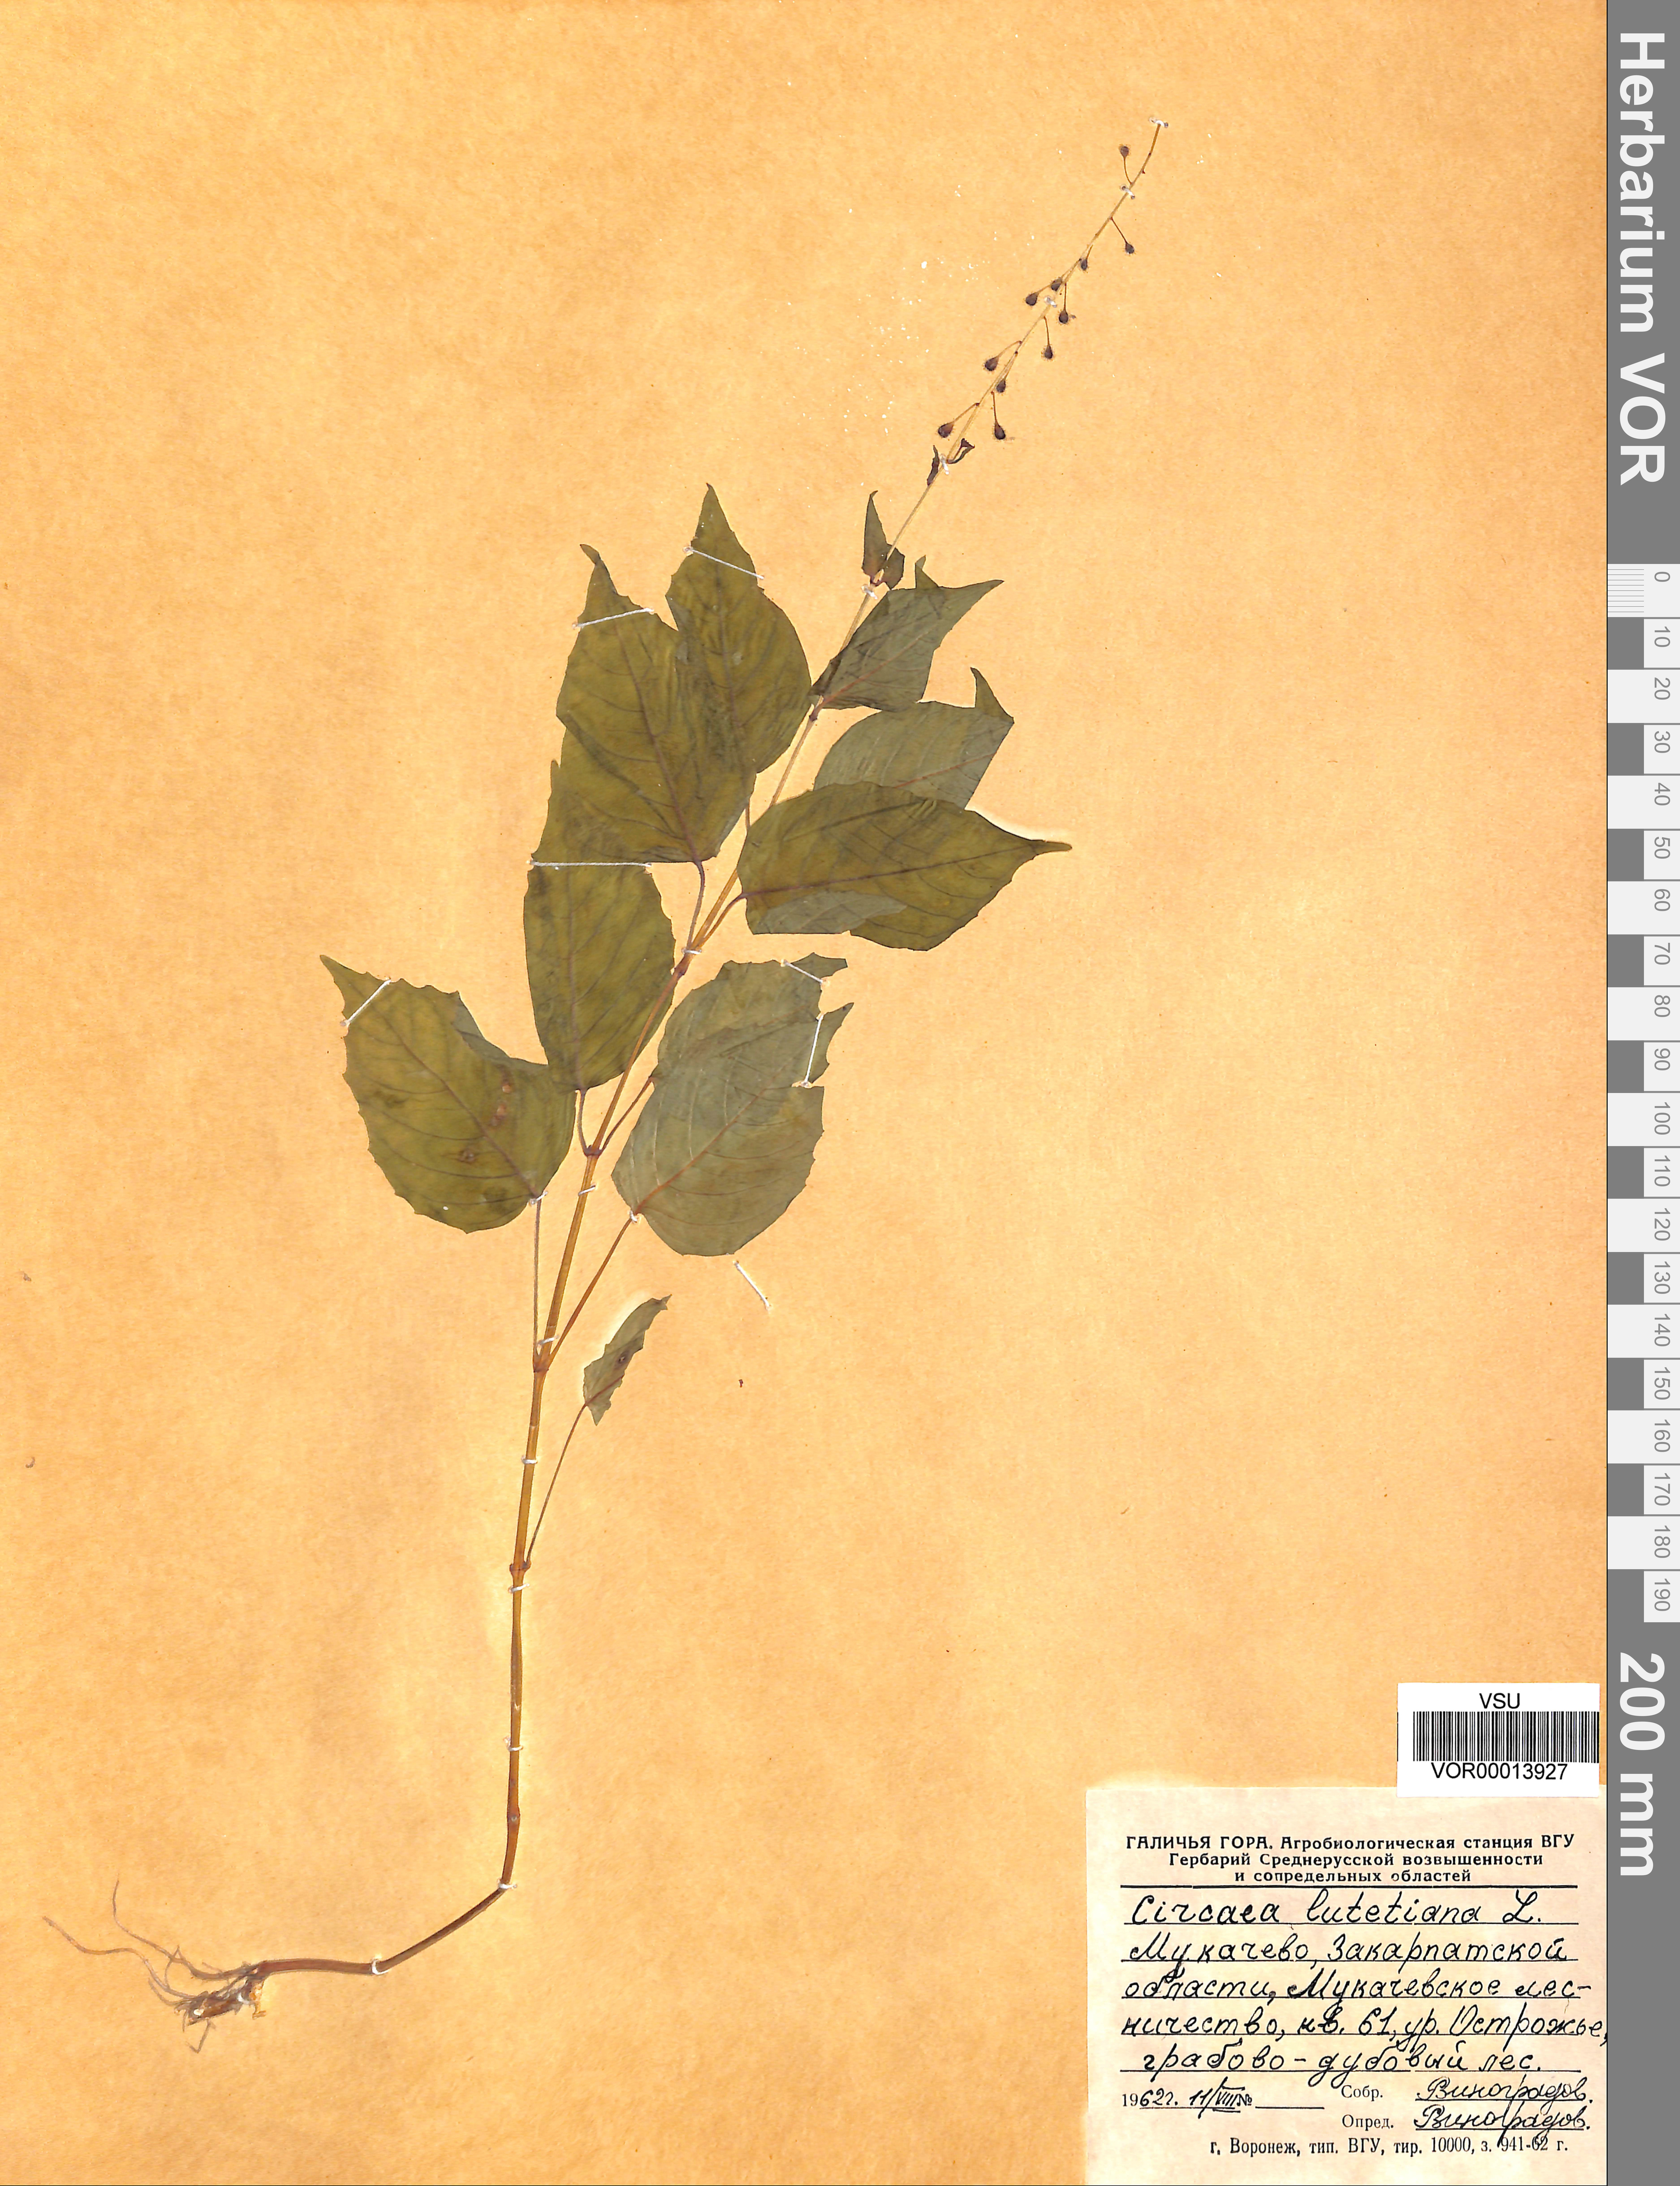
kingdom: Plantae
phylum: Tracheophyta
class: Magnoliopsida
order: Myrtales
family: Onagraceae
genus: Circaea
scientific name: Circaea alpina
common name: Alpine enchanter's-nightshade
